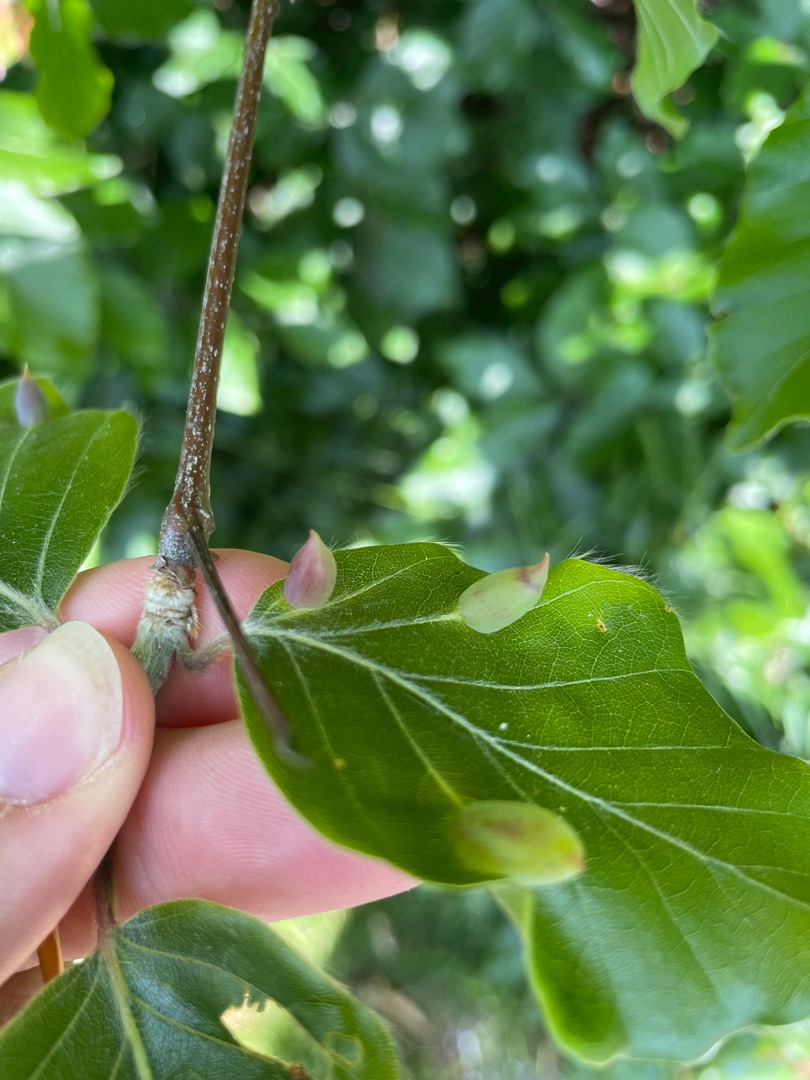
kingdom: Animalia
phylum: Arthropoda
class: Insecta
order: Diptera
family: Cecidomyiidae
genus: Mikiola
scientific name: Mikiola fagi
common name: Bøgegalmyg
